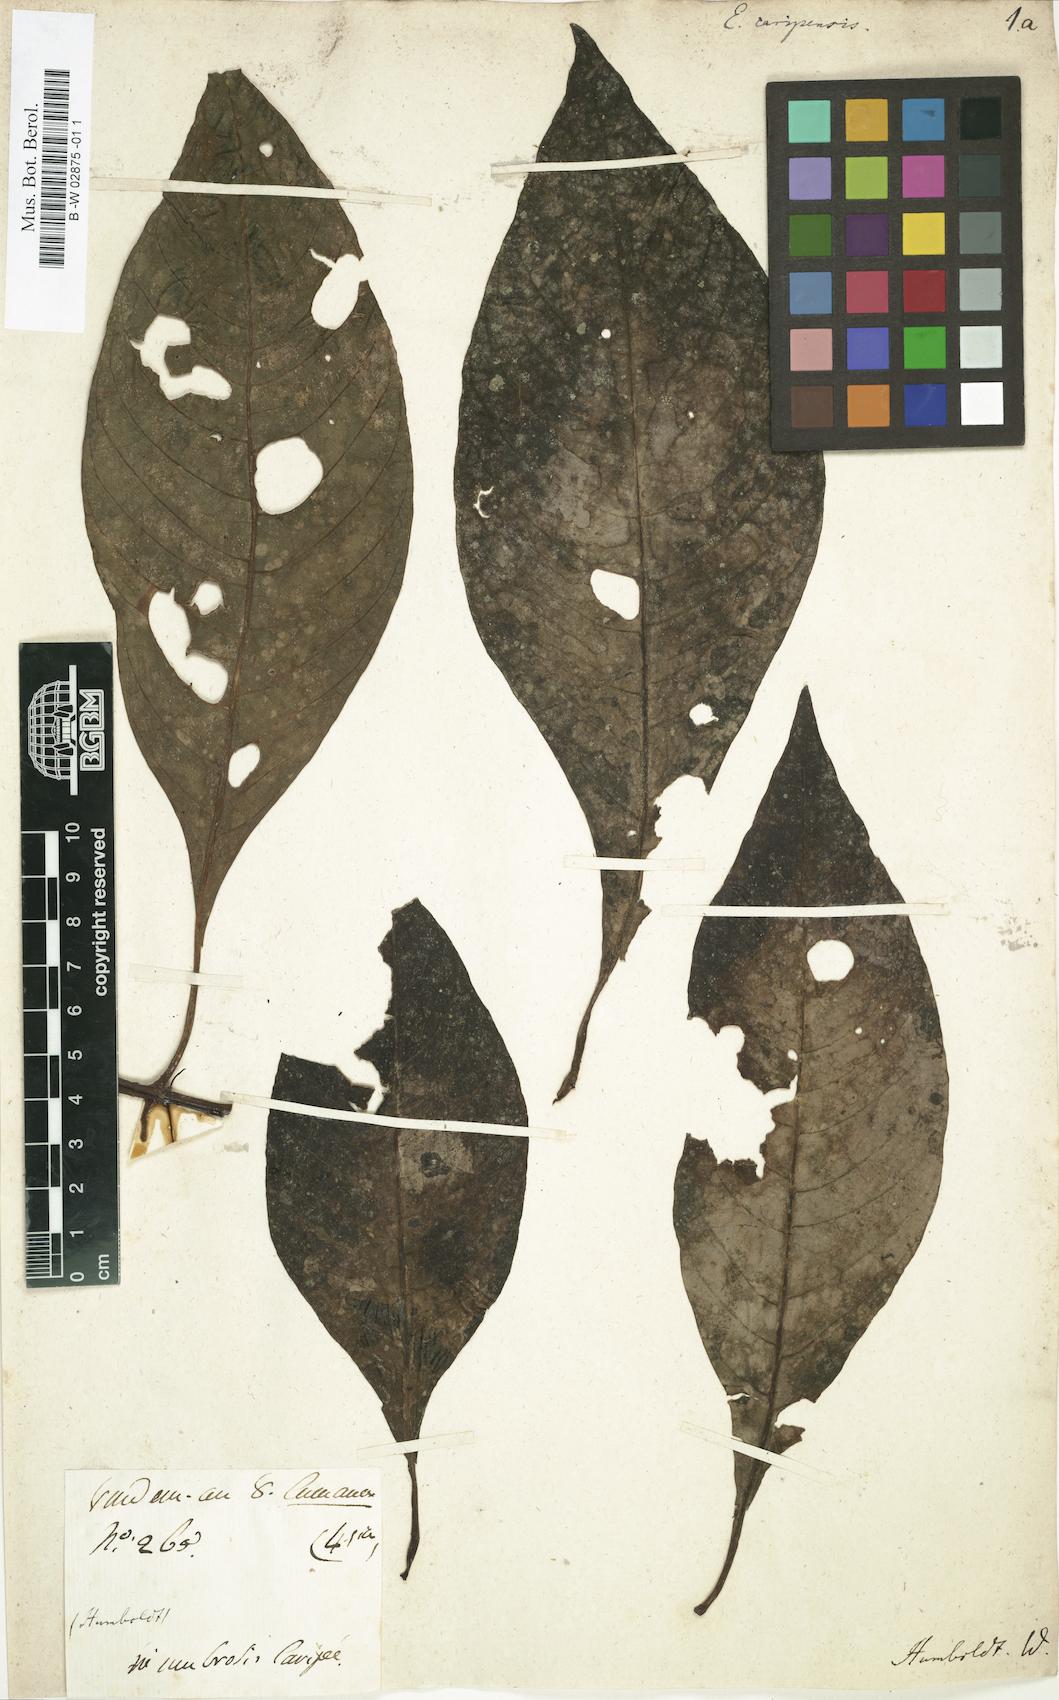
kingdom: Plantae
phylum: Tracheophyta
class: Magnoliopsida
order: Gentianales
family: Rubiaceae
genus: Hoffmannia
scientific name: Hoffmannia Euosmia caripensis
